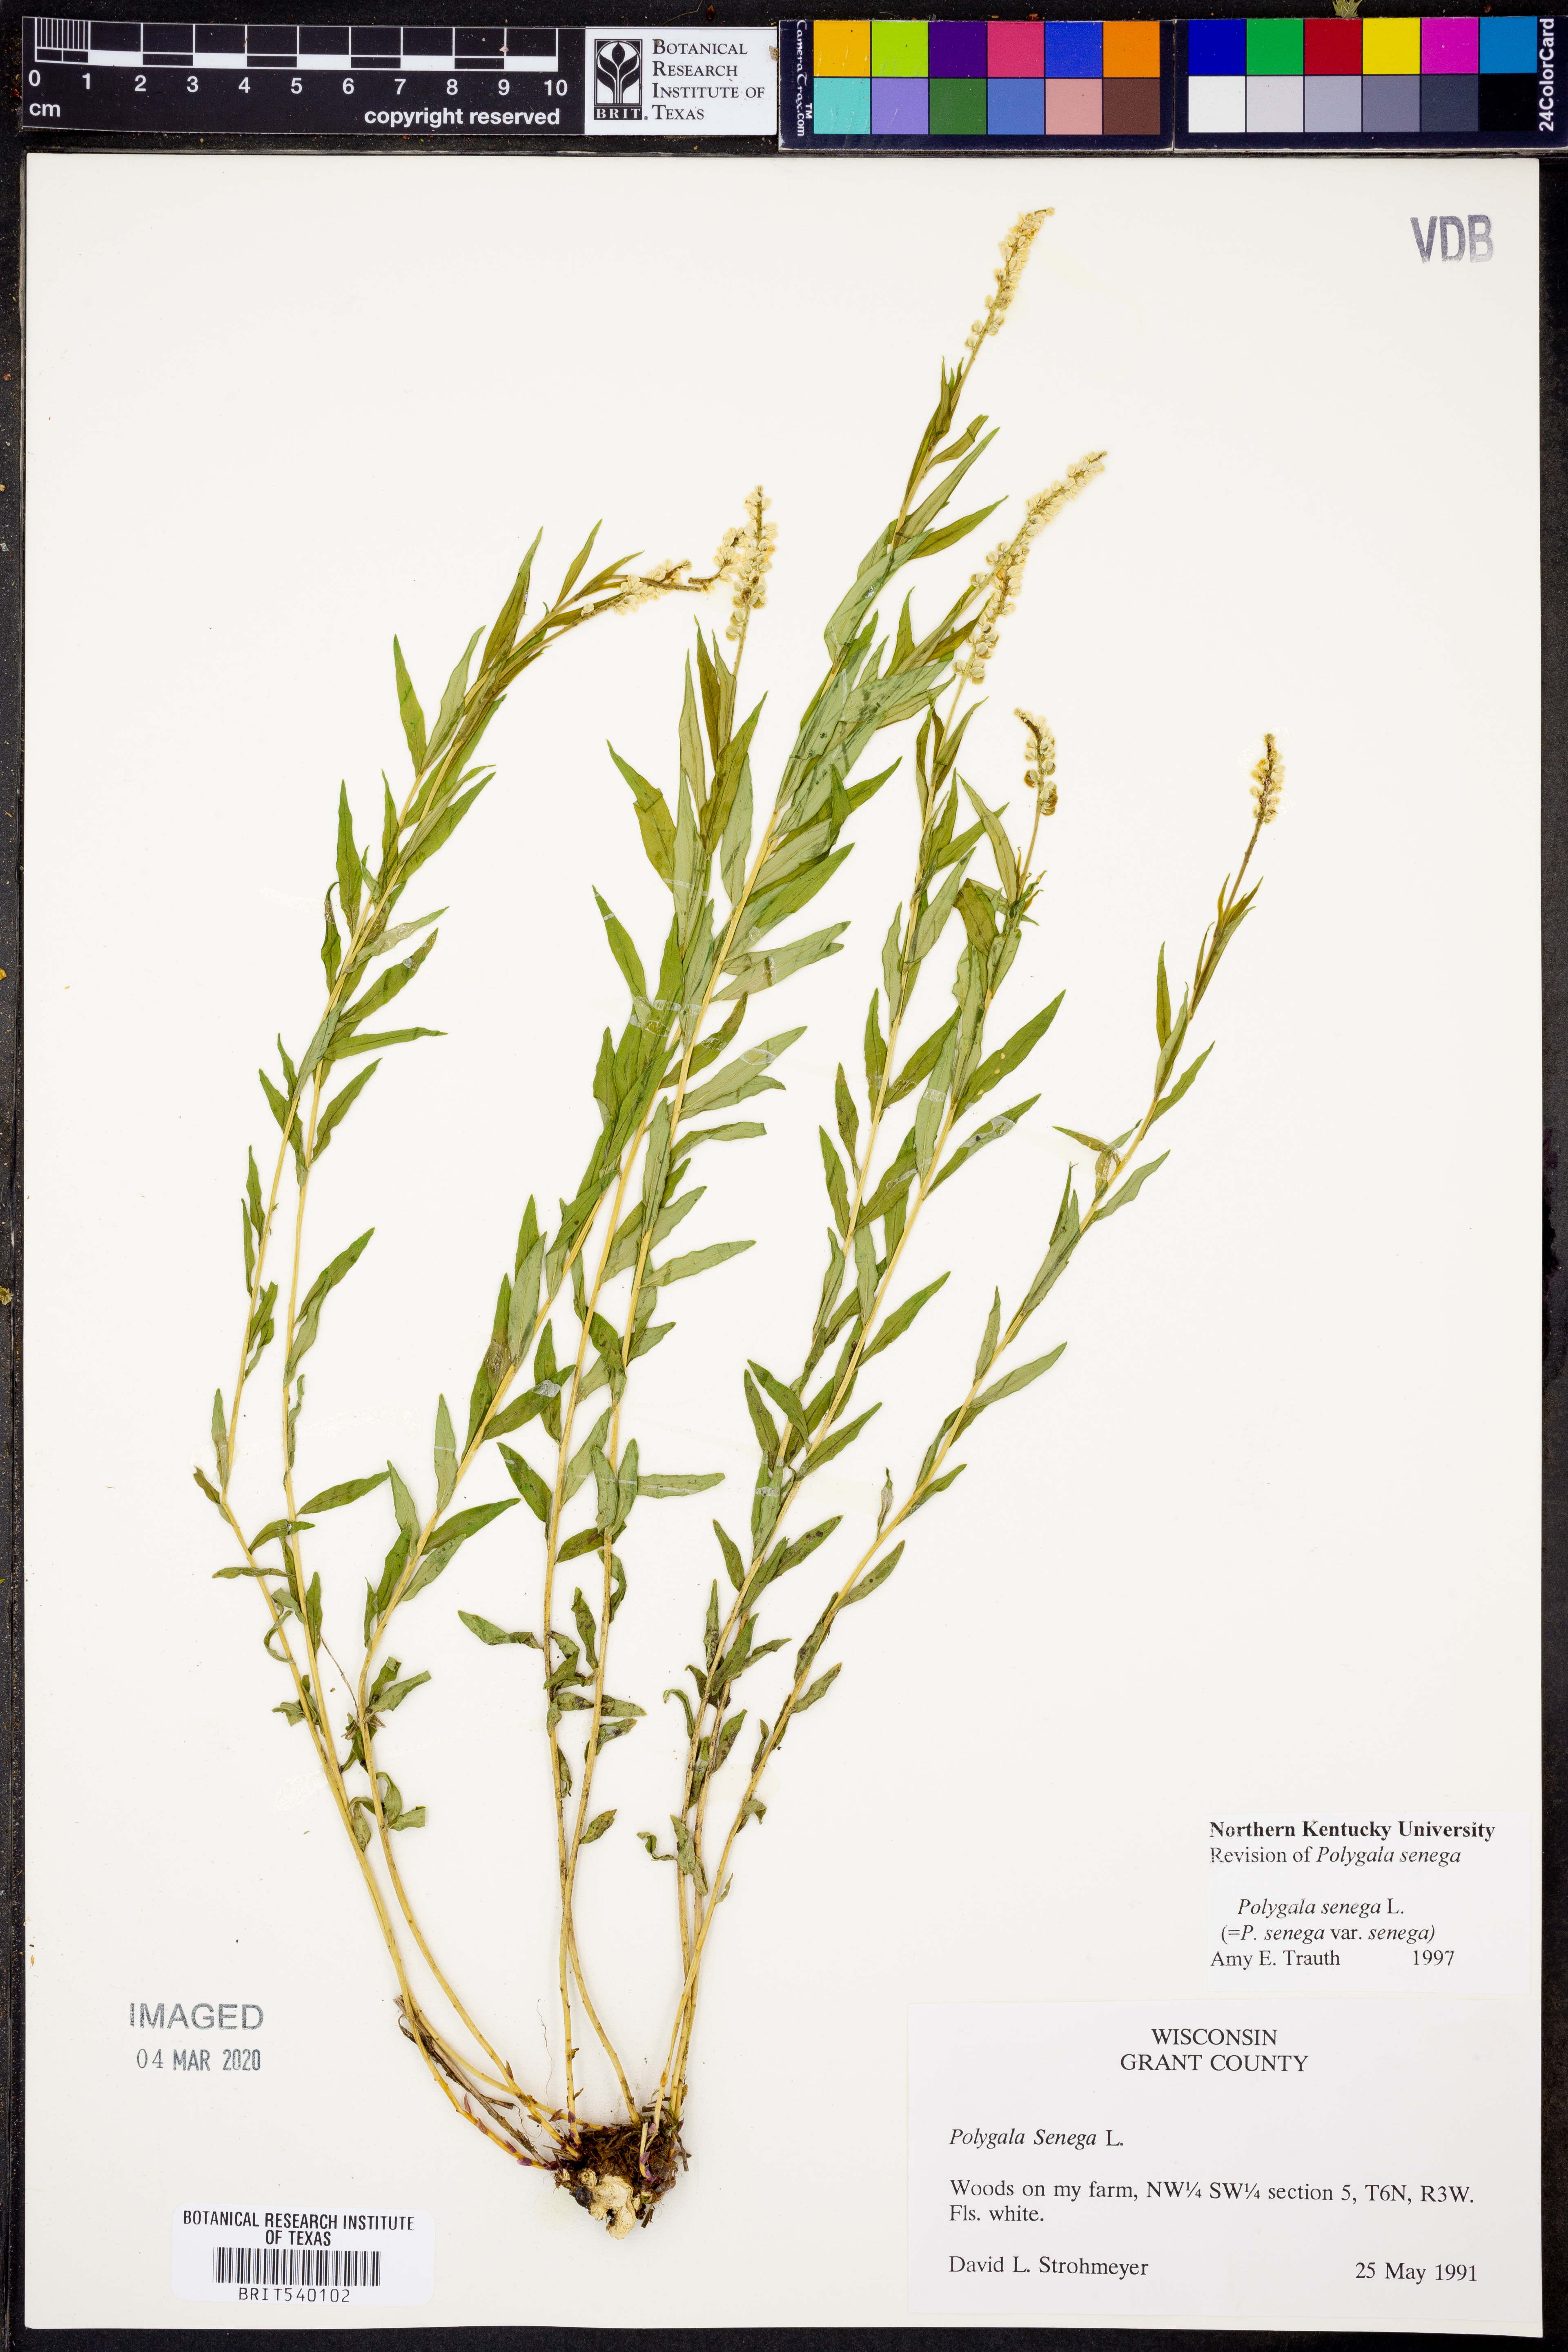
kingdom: Plantae
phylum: Tracheophyta
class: Magnoliopsida
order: Fabales
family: Polygalaceae
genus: Polygala
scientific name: Polygala senega
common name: Seneca snakeroot
